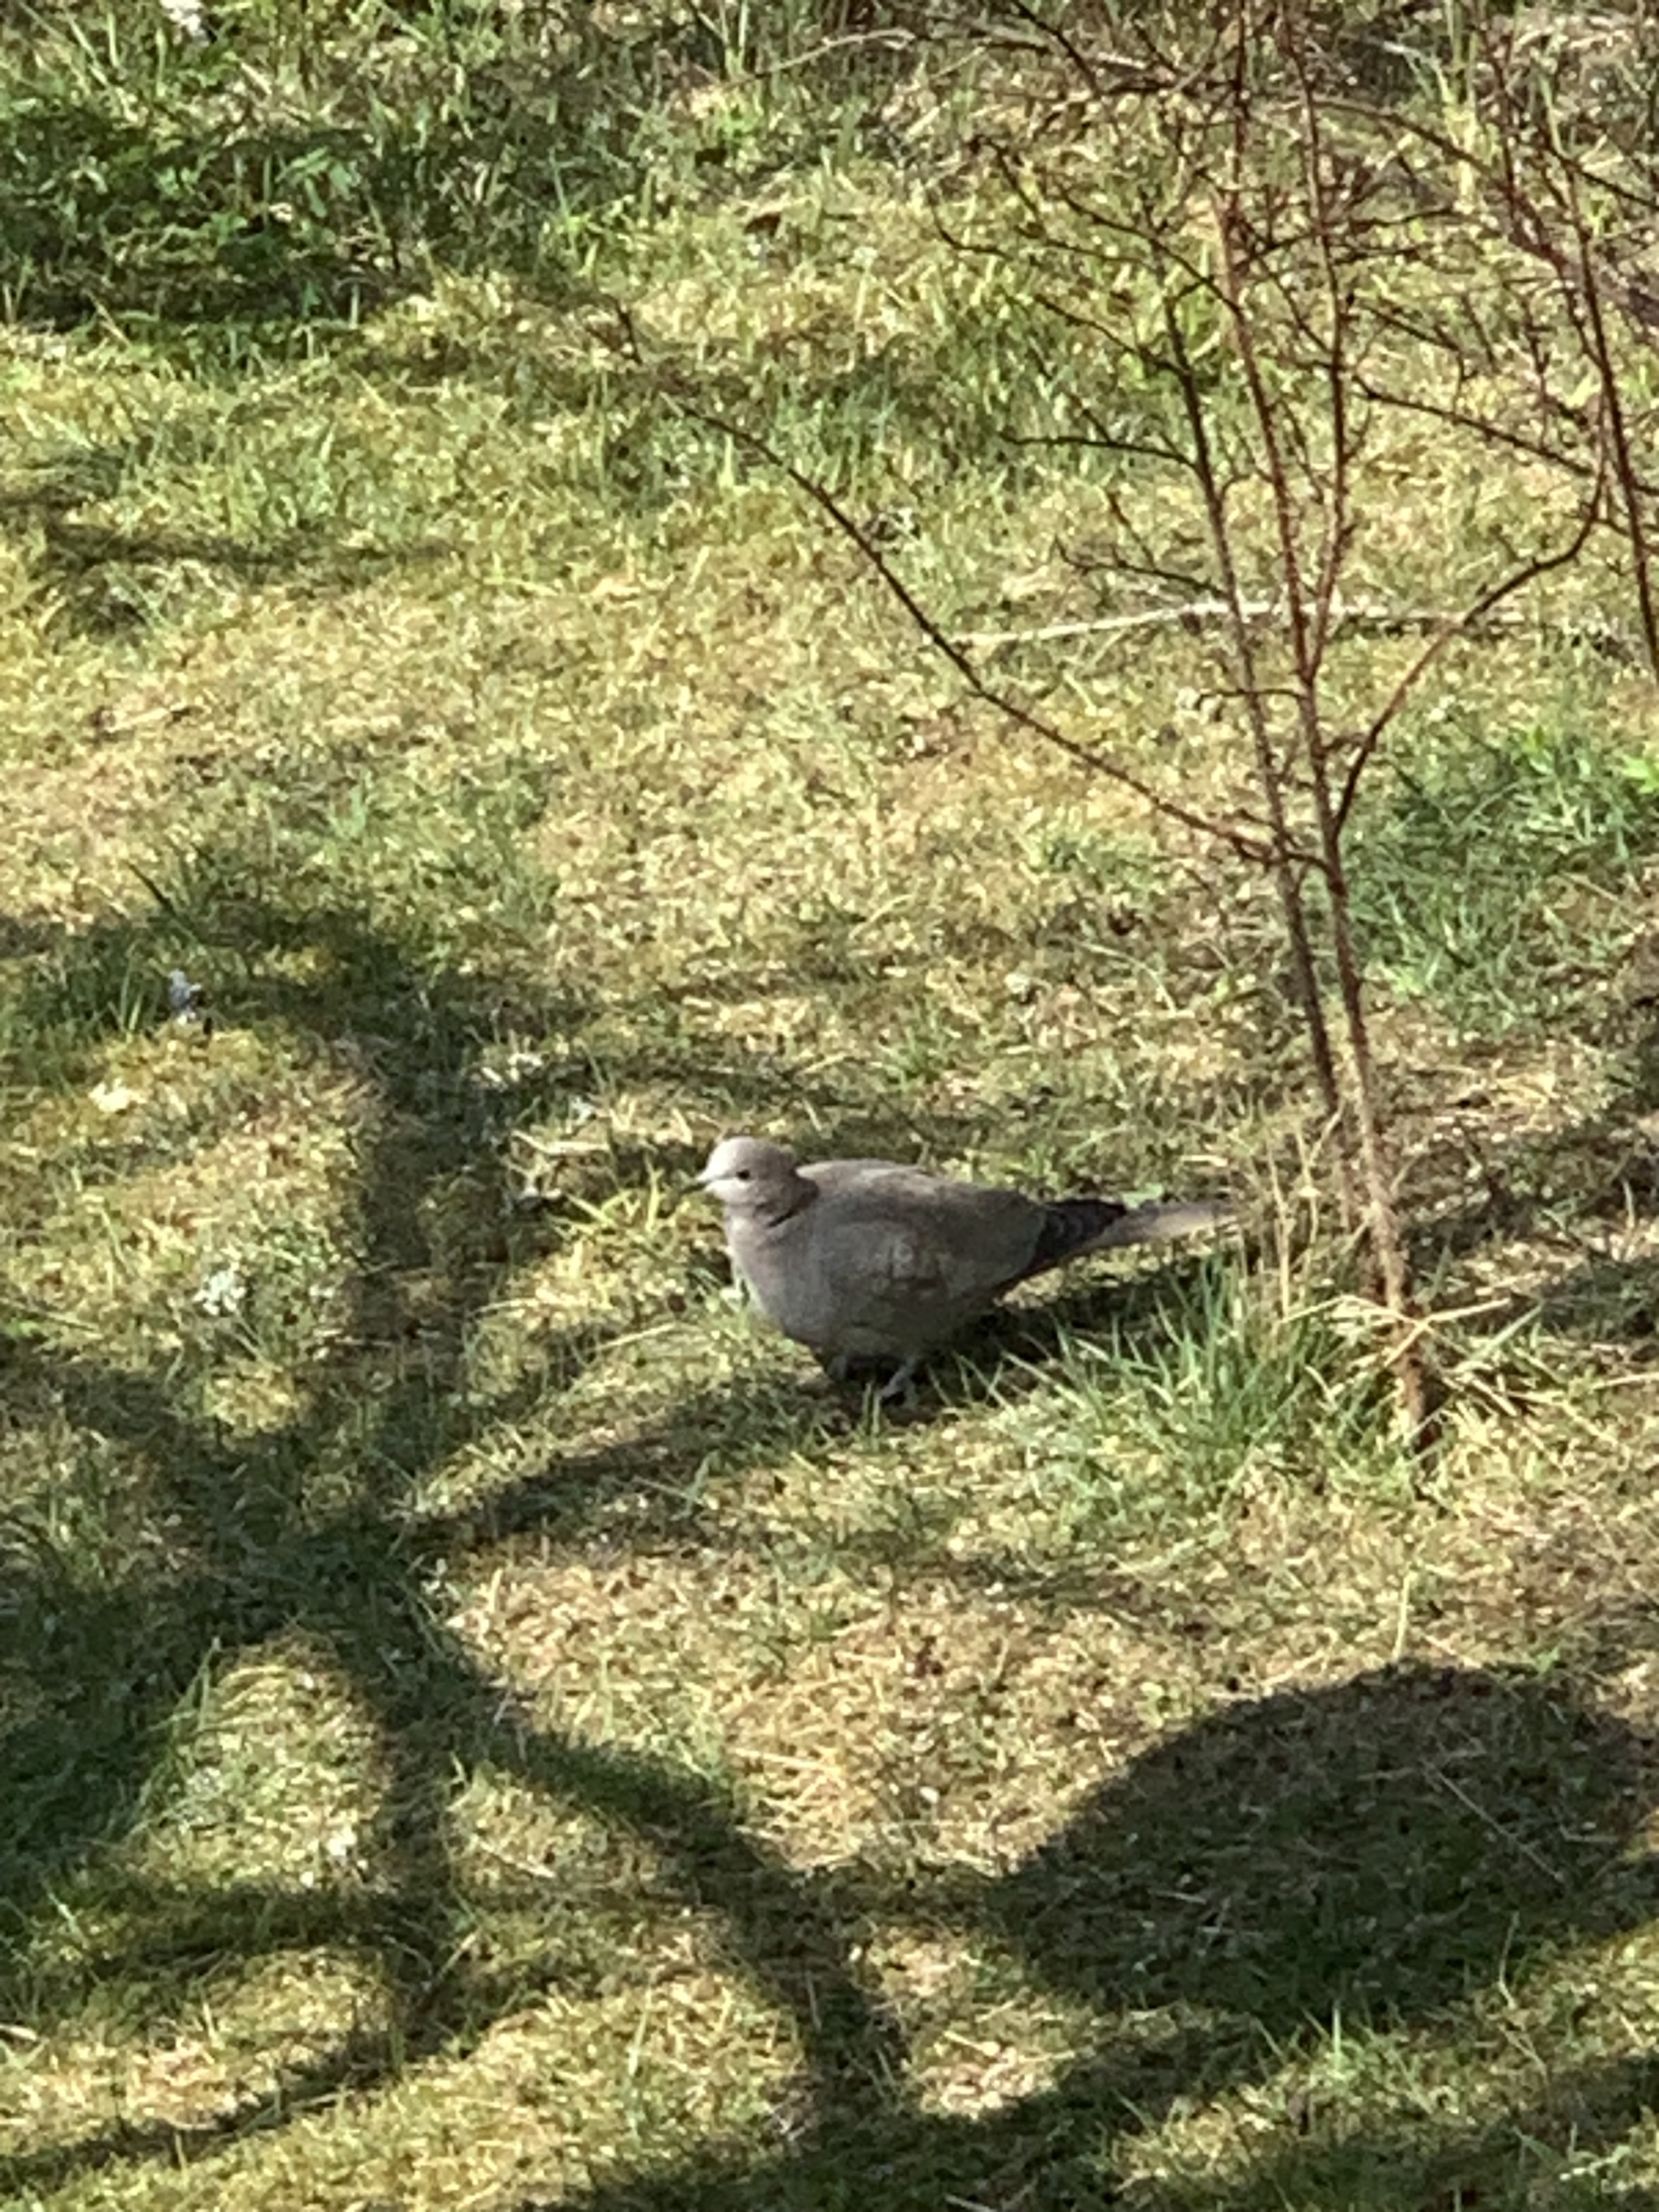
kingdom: Animalia
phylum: Chordata
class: Aves
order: Columbiformes
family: Columbidae
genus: Streptopelia
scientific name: Streptopelia decaocto
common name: Eurasian collared dove
